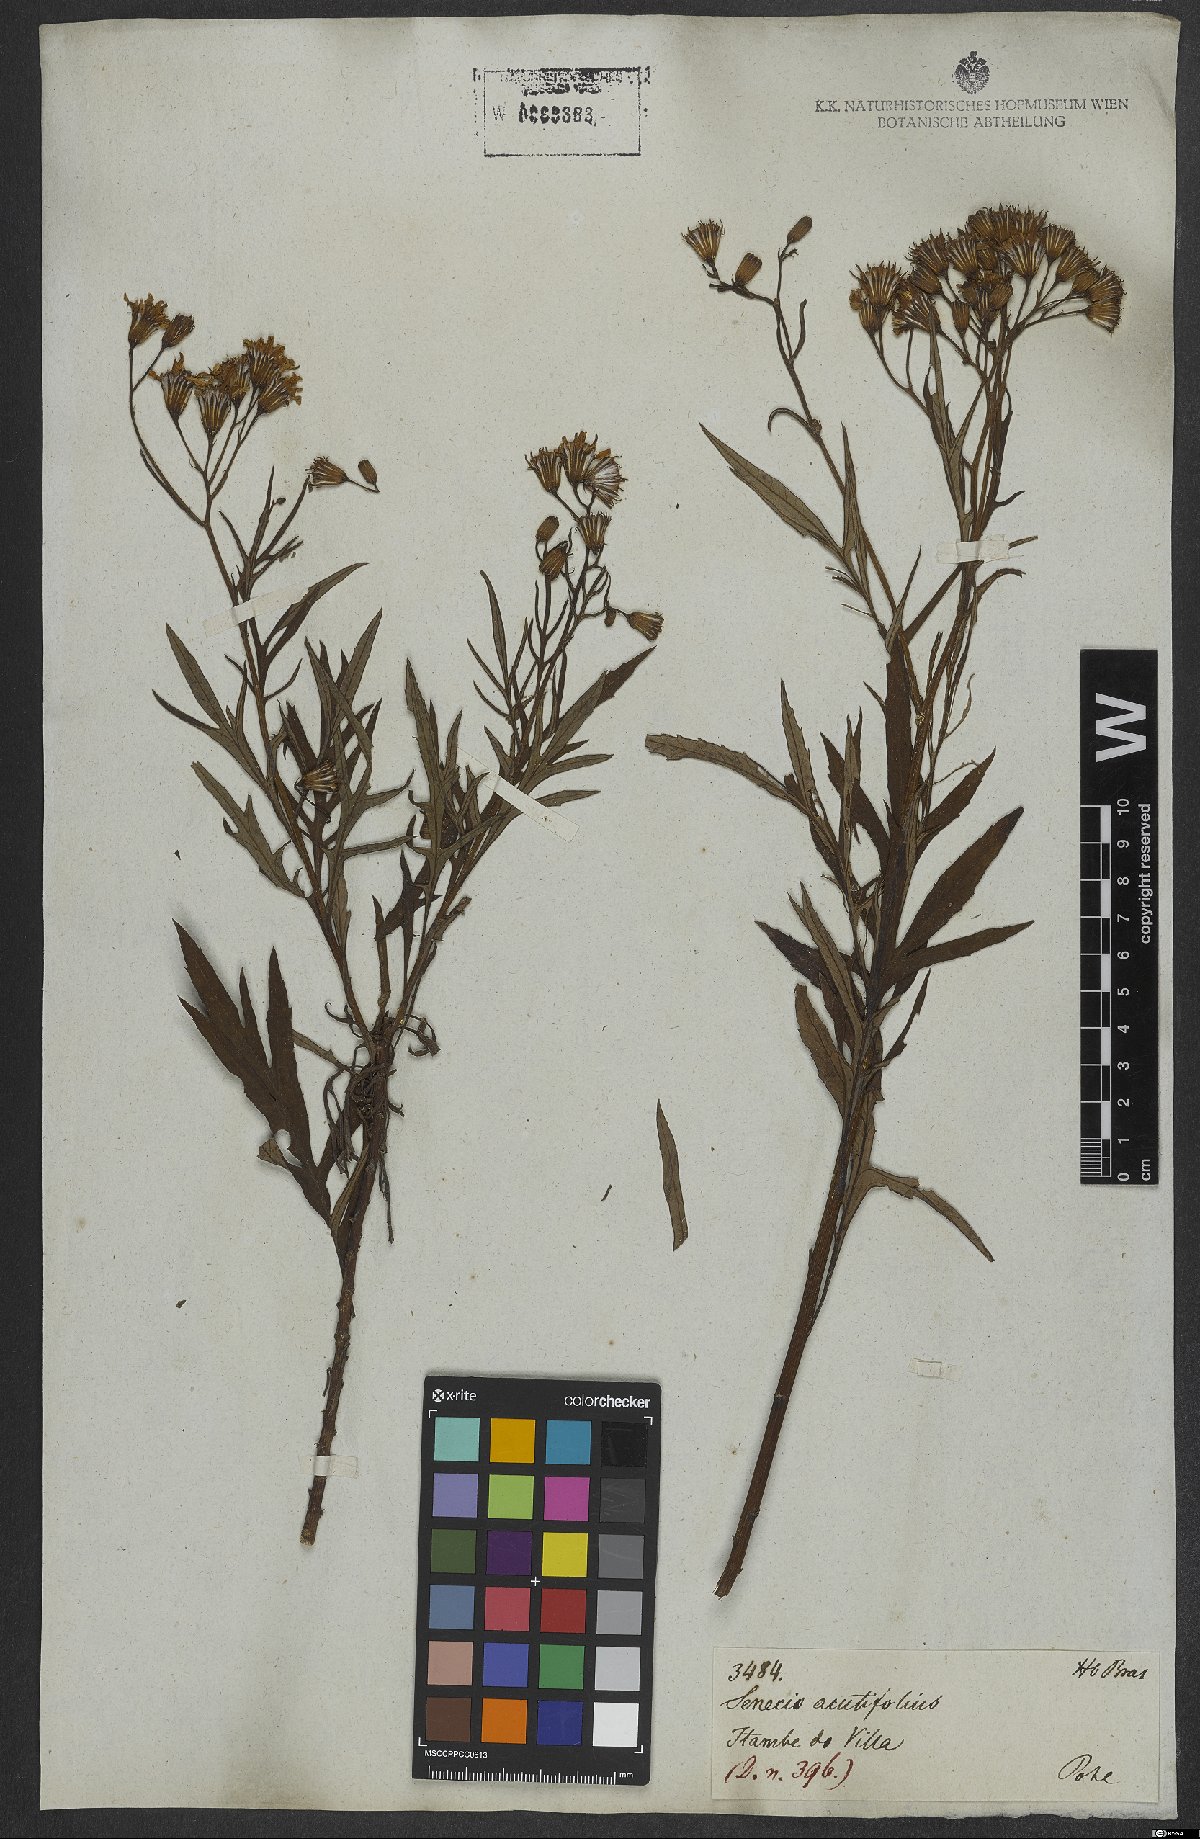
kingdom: Plantae
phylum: Tracheophyta
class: Magnoliopsida
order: Asterales
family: Asteraceae
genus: Senecio
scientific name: Senecio brasiliensis
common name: Hemp-leaf ragwort
